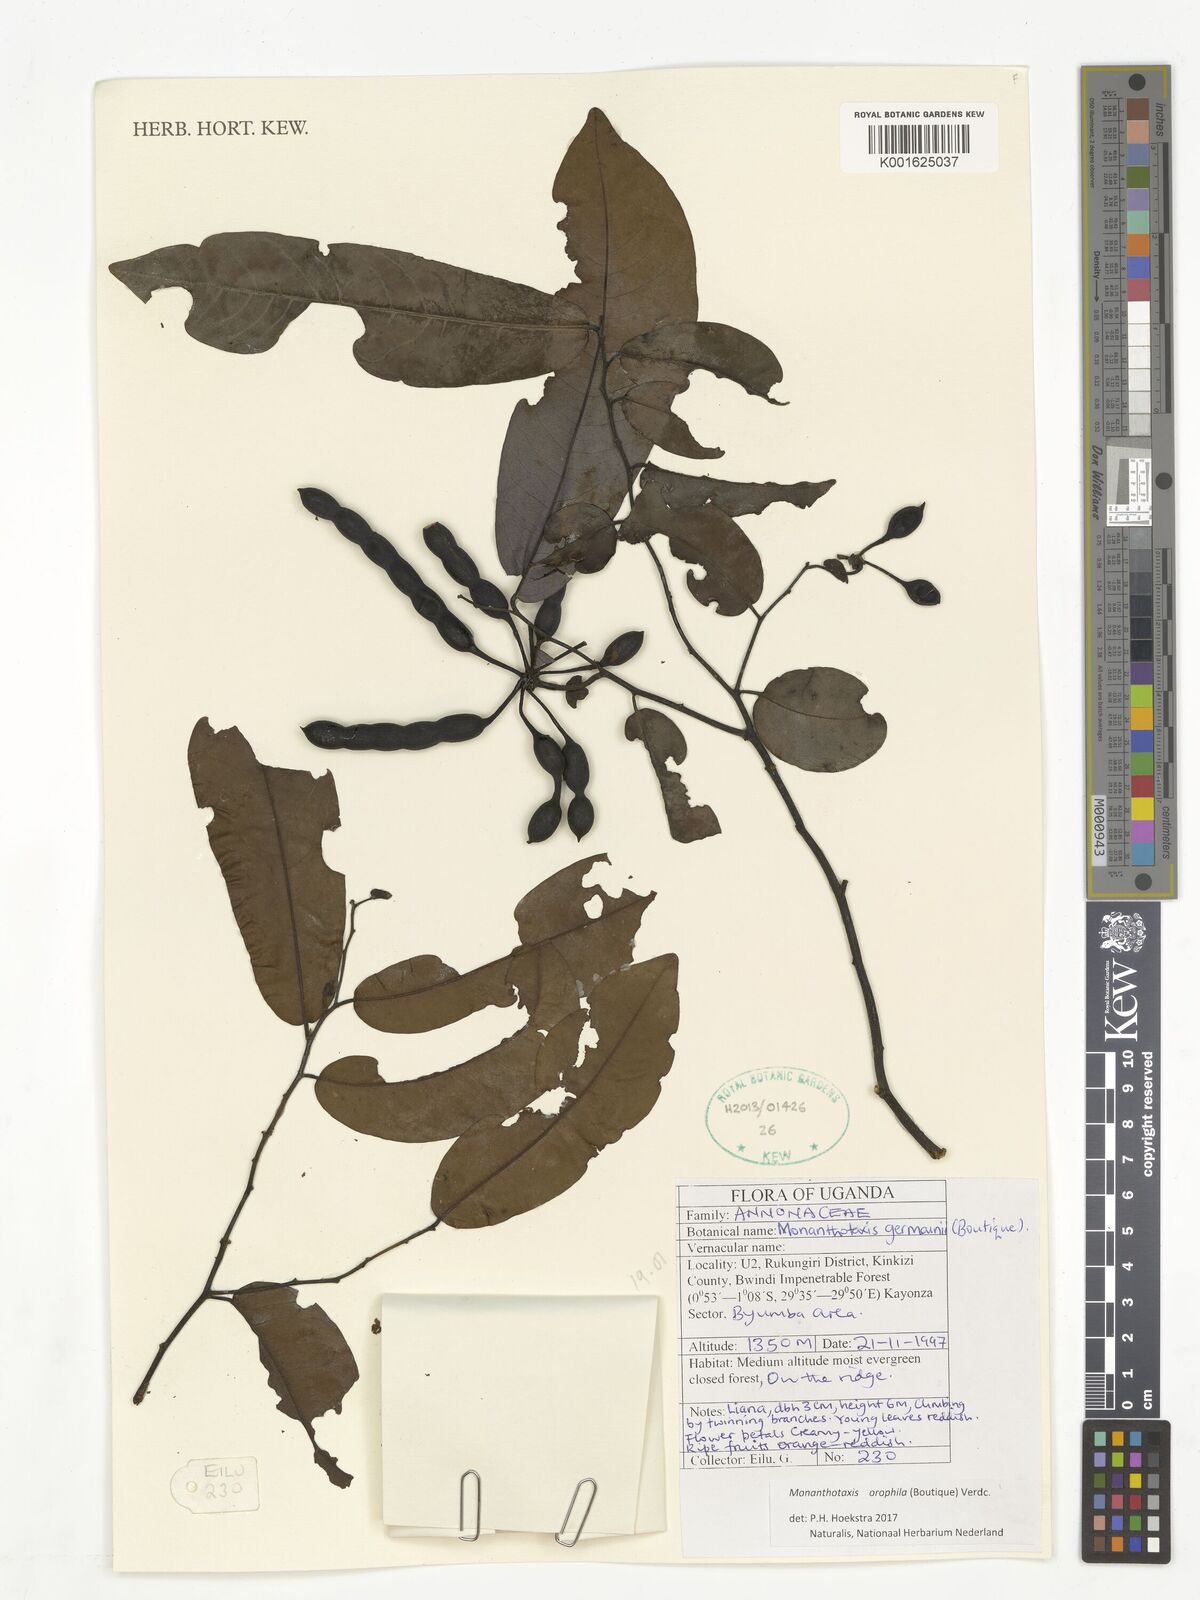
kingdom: Plantae
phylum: Tracheophyta
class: Magnoliopsida
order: Magnoliales
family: Annonaceae
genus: Monanthotaxis
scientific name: Monanthotaxis orophila
